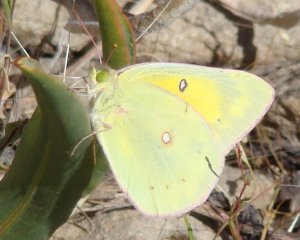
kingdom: Animalia
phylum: Arthropoda
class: Insecta
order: Lepidoptera
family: Pieridae
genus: Colias
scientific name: Colias eurytheme
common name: Orange Sulphur
